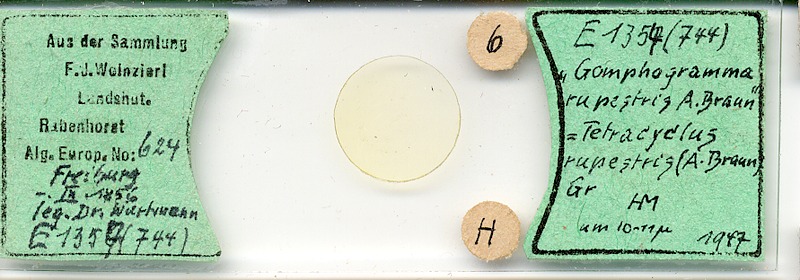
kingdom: Chromista
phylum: Ochrophyta
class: Bacillariophyceae
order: Tabellariales
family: Tabellariaceae
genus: Tetracyclus
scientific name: Tetracyclus rupestris
